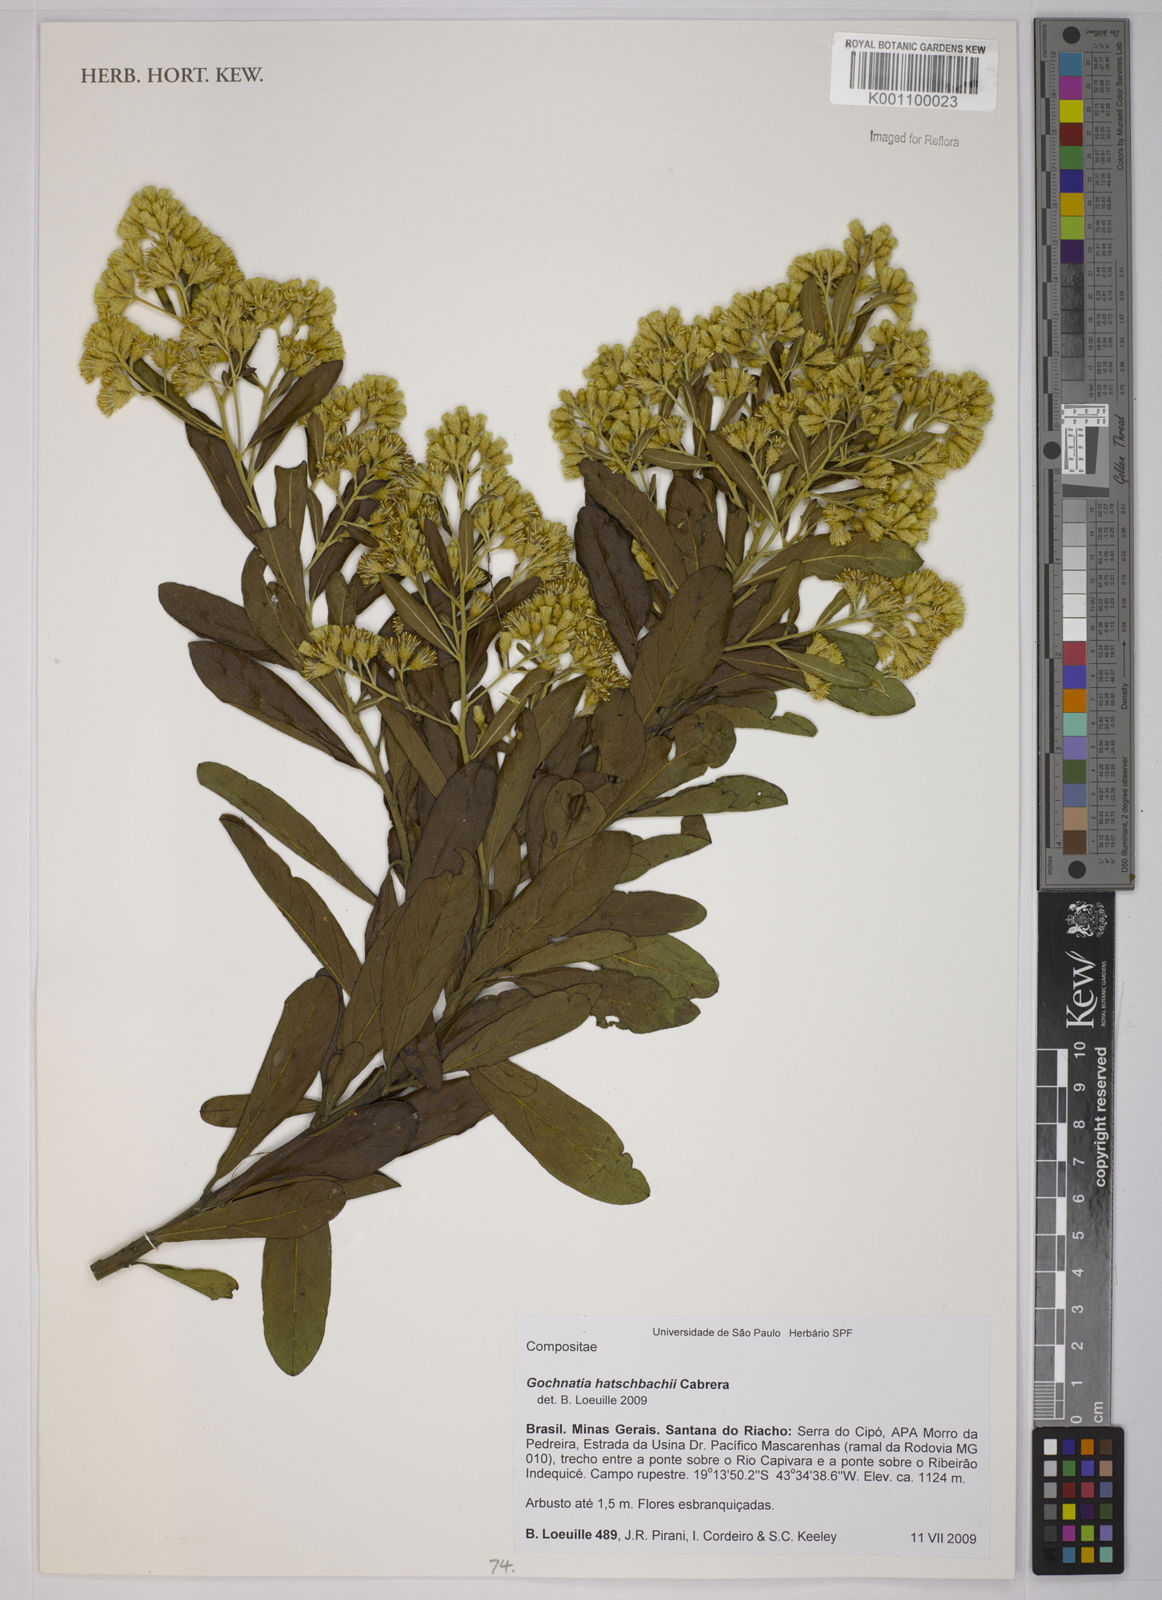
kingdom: Plantae
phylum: Tracheophyta
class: Magnoliopsida
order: Asterales
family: Asteraceae
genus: Moquiniastrum
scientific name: Moquiniastrum hatschbachii
